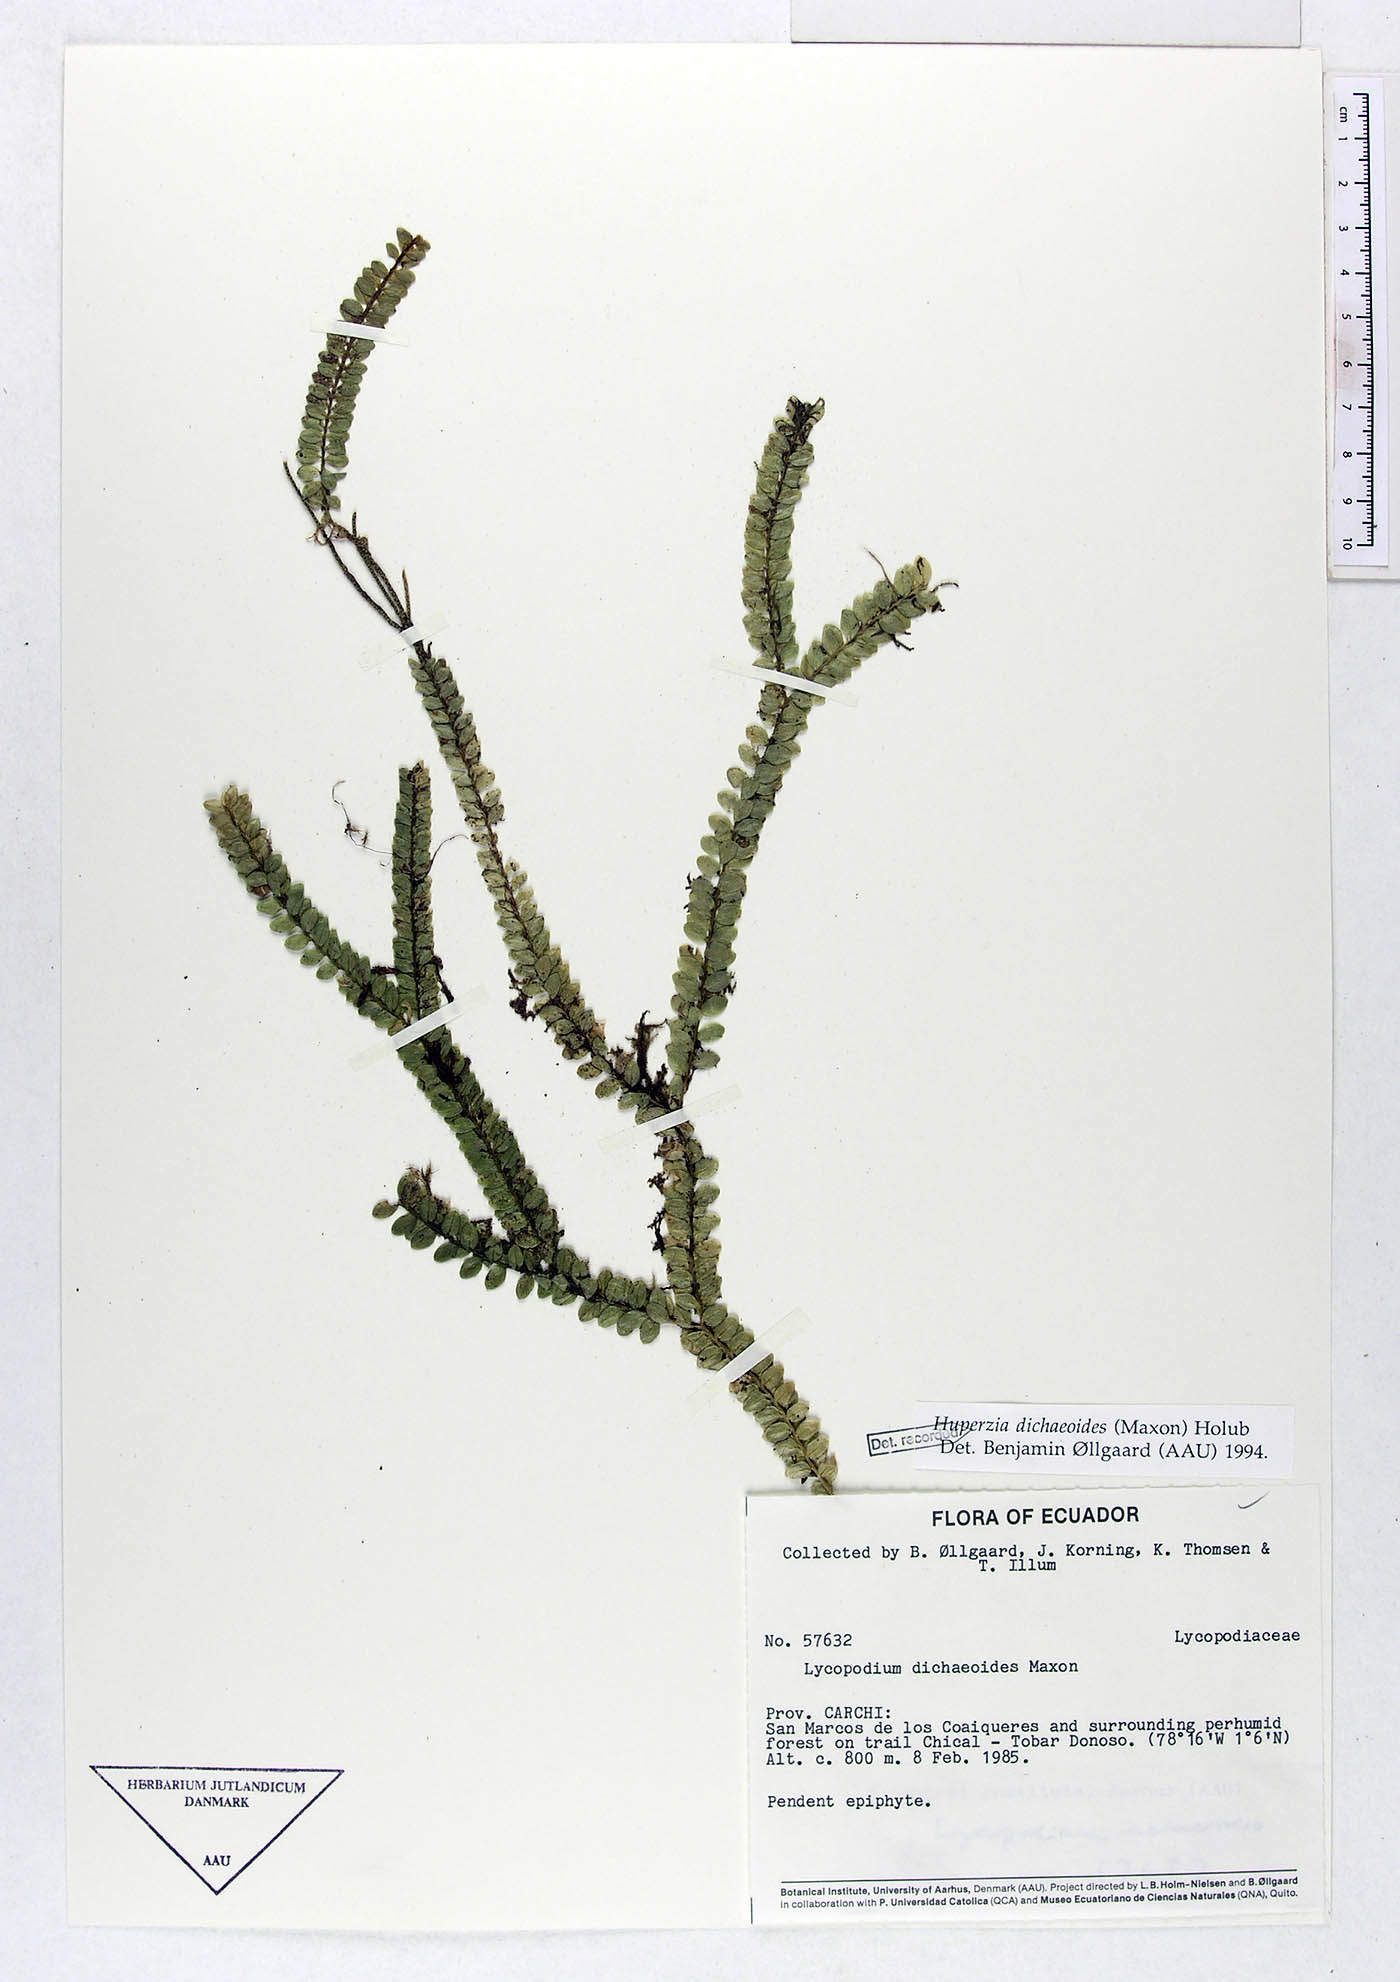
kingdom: Plantae
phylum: Tracheophyta
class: Lycopodiopsida
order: Lycopodiales
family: Lycopodiaceae
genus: Phlegmariurus
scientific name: Phlegmariurus dichaeoides
